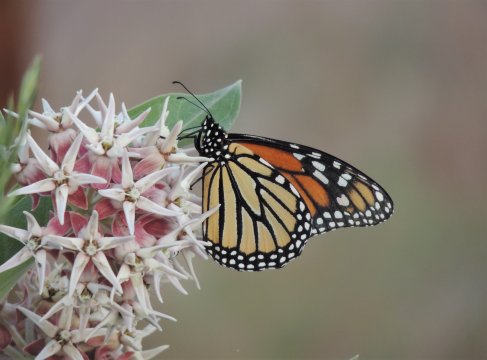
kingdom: Animalia
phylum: Arthropoda
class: Insecta
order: Lepidoptera
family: Nymphalidae
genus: Danaus
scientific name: Danaus plexippus
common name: Monarch
